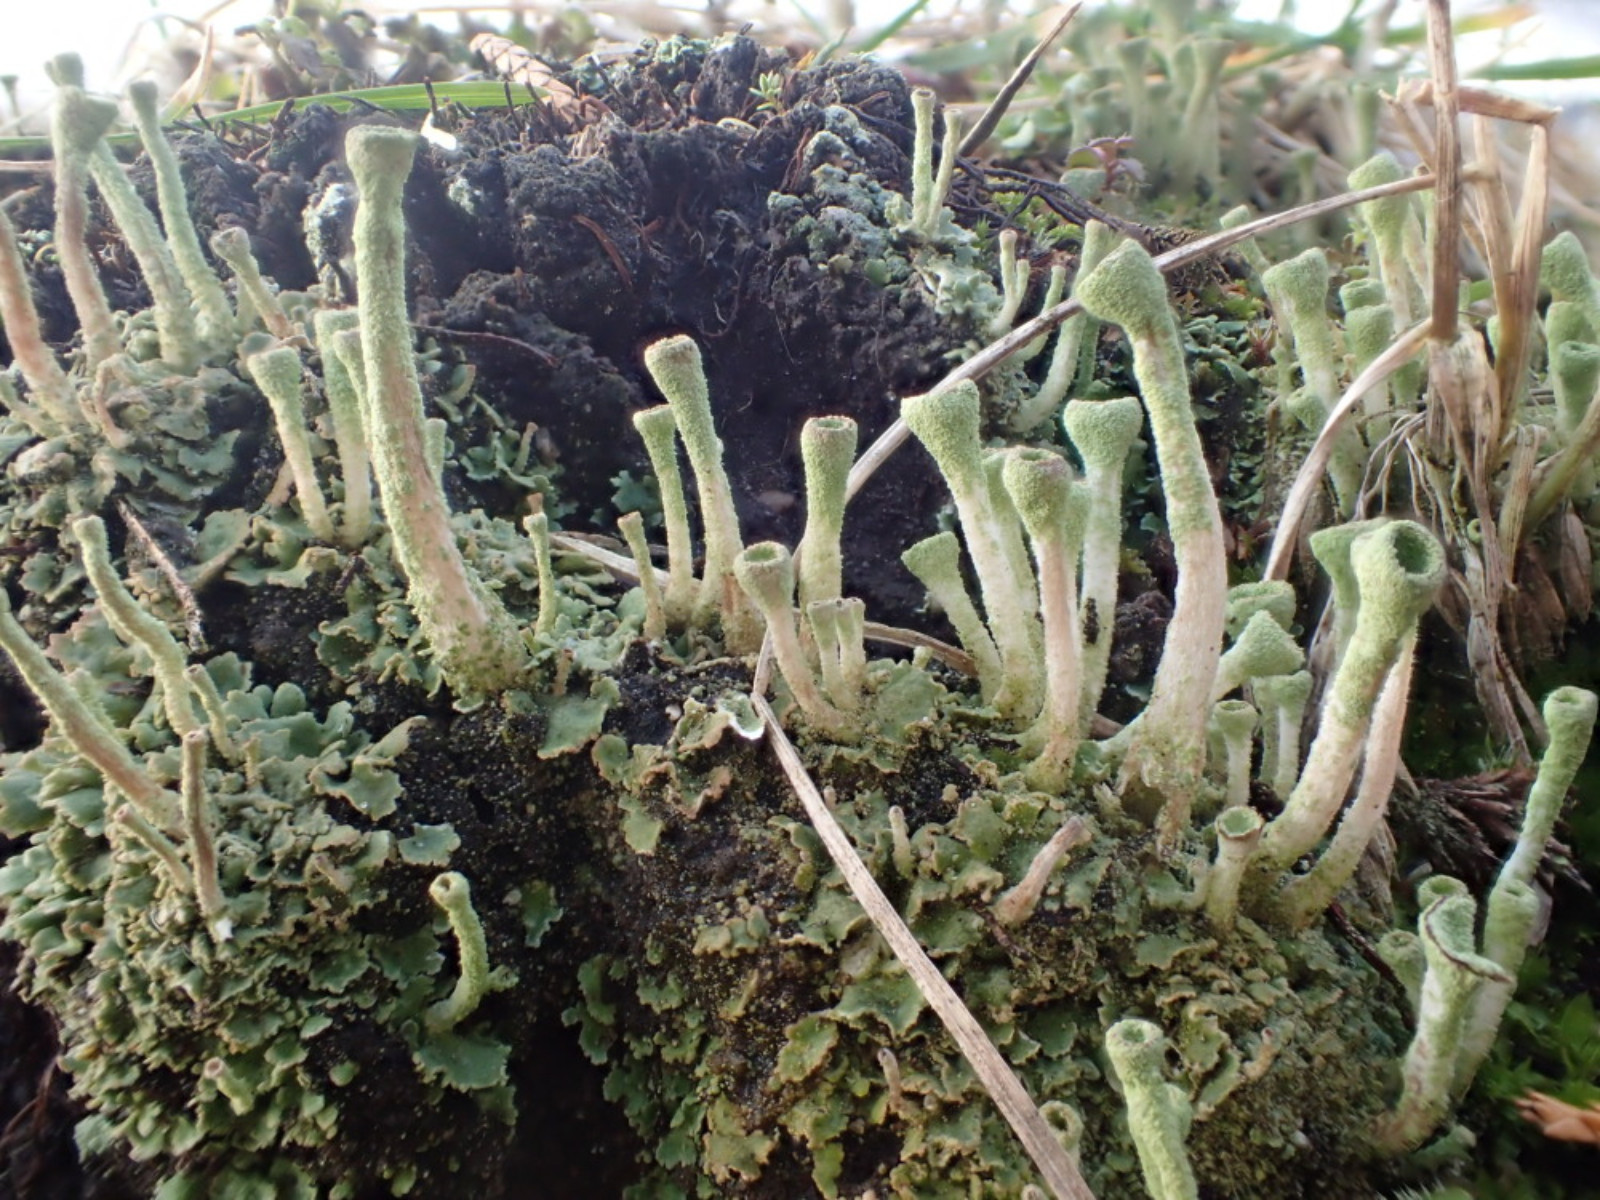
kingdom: Fungi
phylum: Ascomycota
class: Lecanoromycetes
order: Lecanorales
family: Cladoniaceae
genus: Cladonia
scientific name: Cladonia fimbriata
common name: bleggrøn bægerlav
